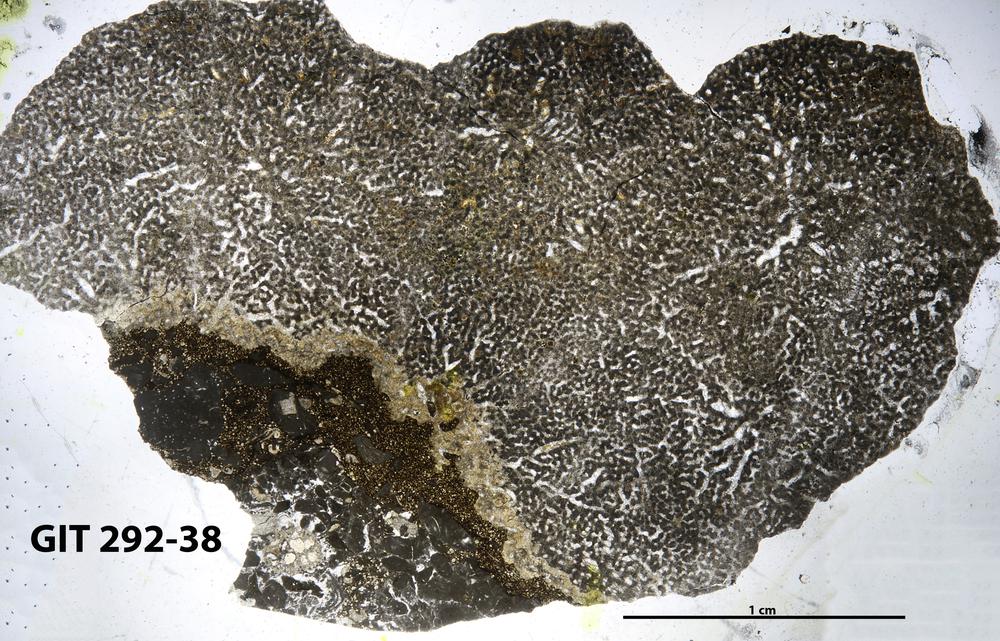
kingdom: Animalia
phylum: Porifera
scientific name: Porifera
